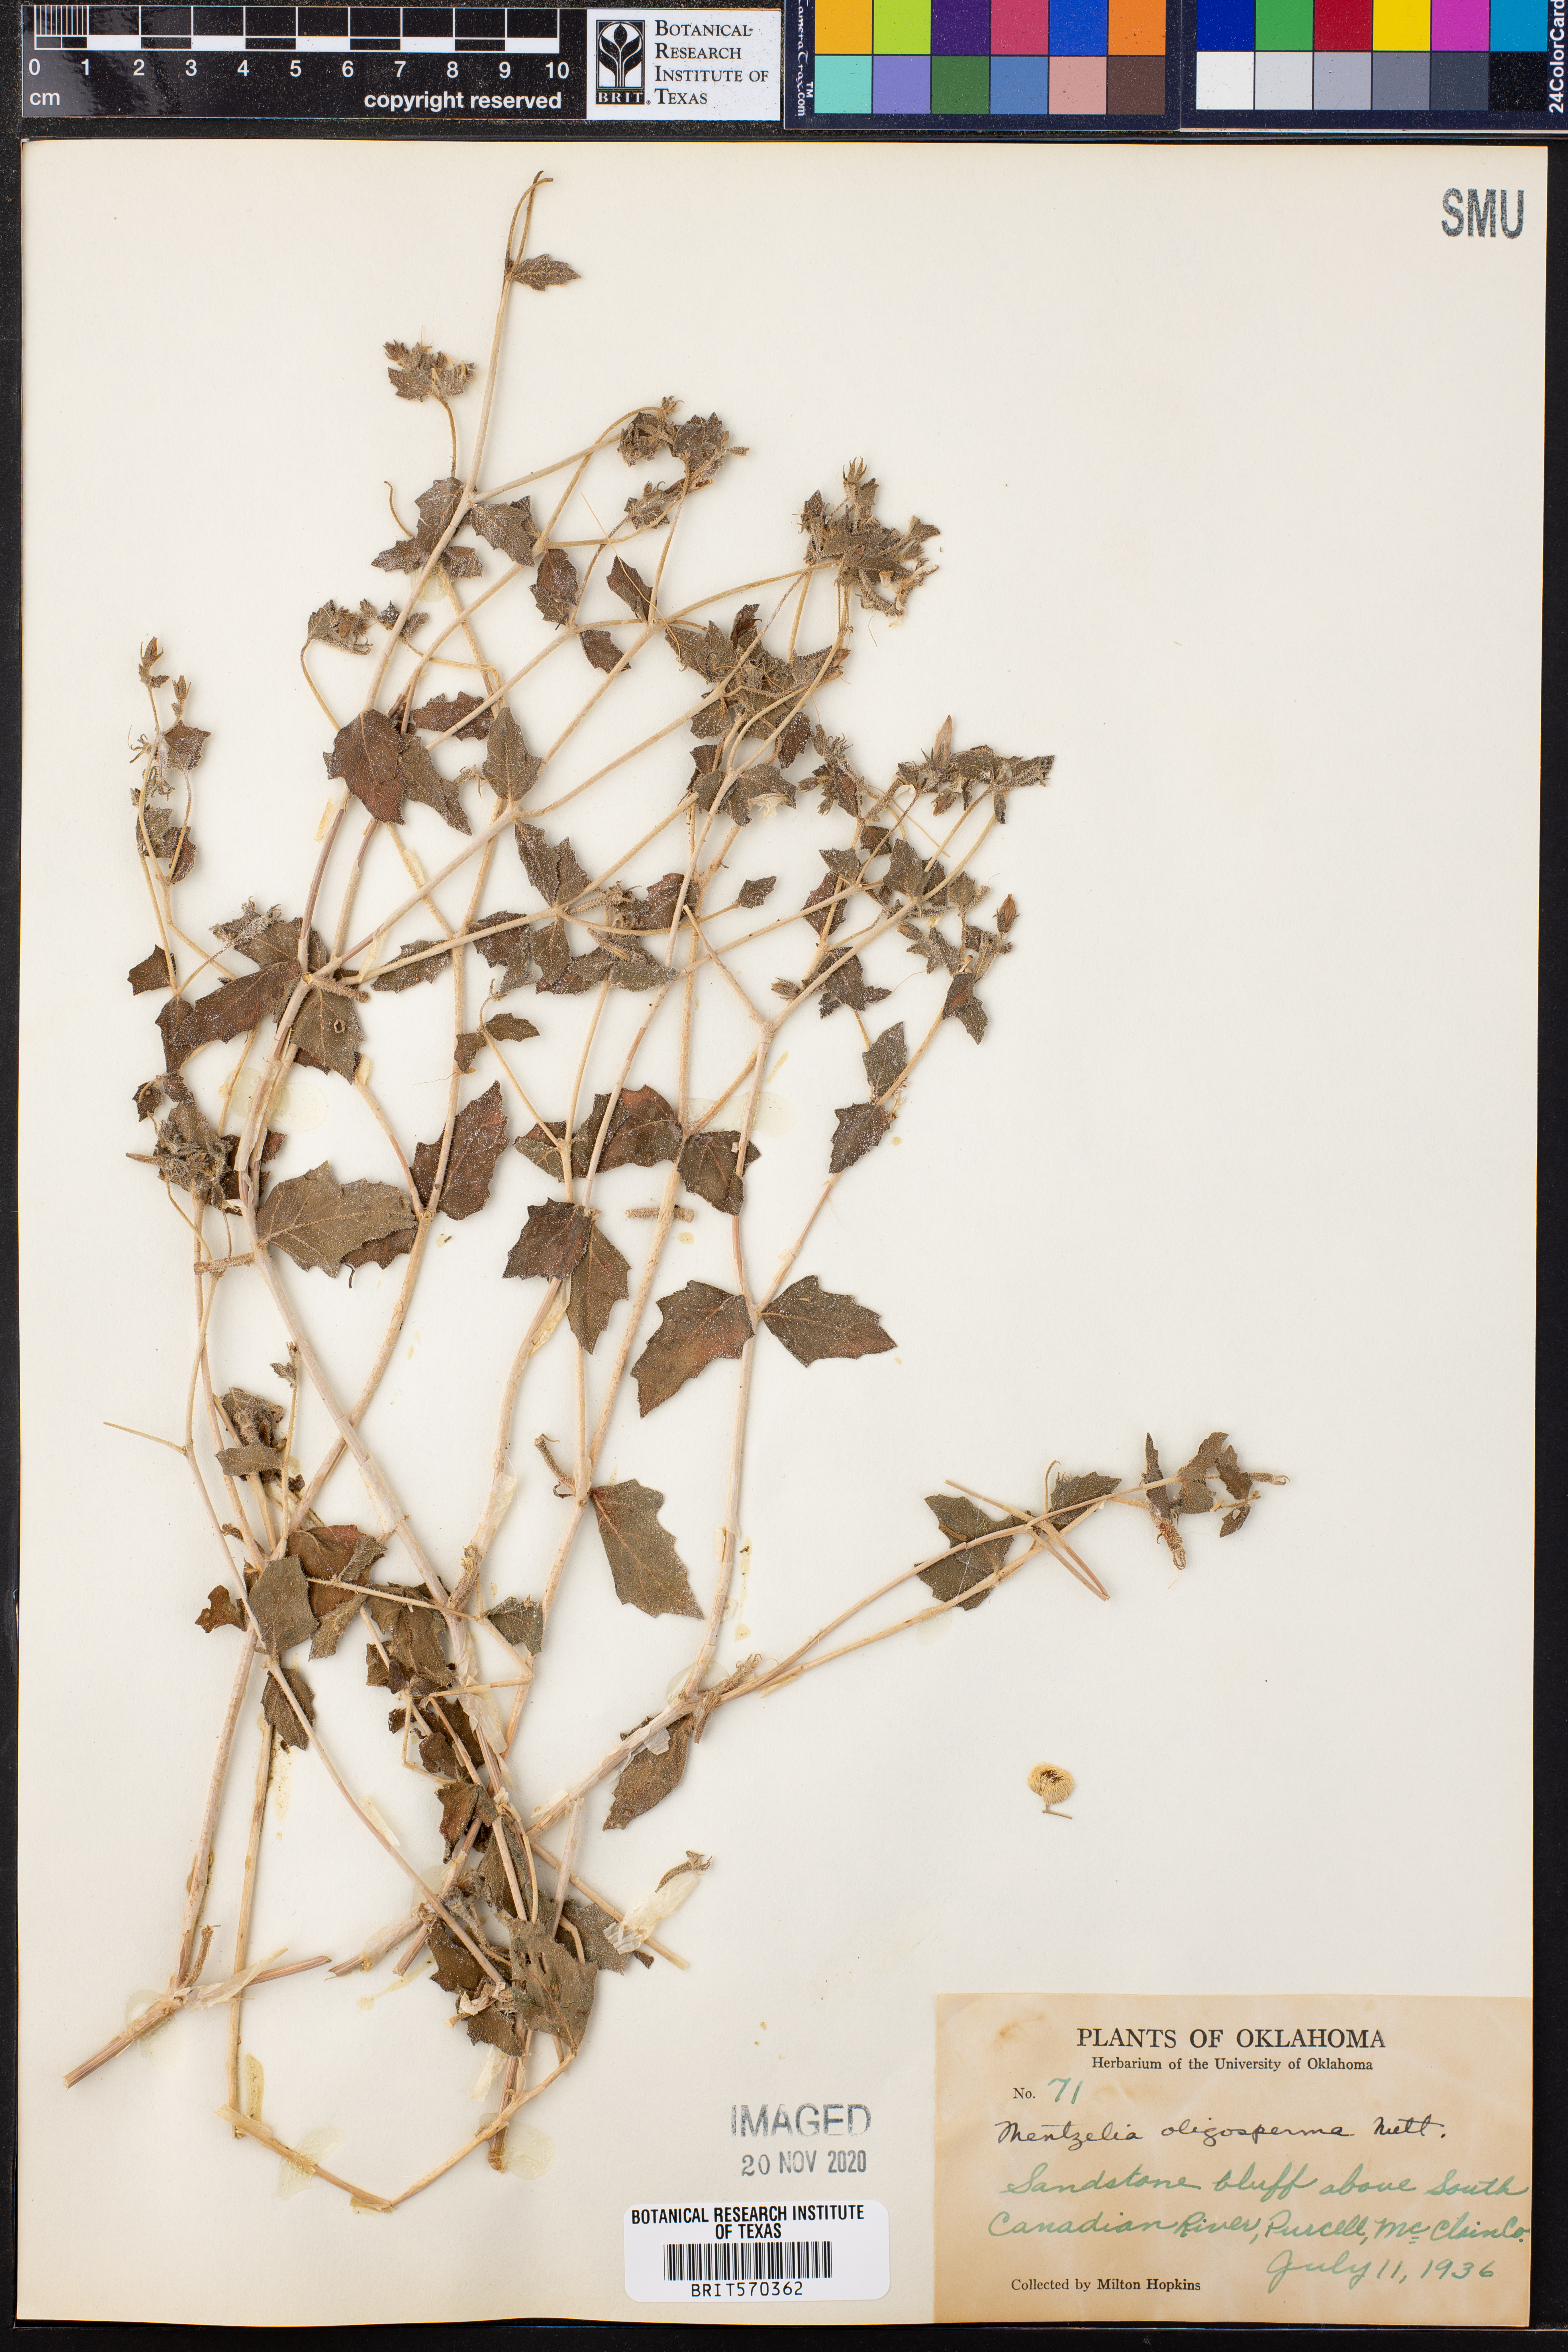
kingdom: Plantae
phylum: Tracheophyta
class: Magnoliopsida
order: Cornales
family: Loasaceae
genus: Mentzelia
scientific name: Mentzelia oligosperma
